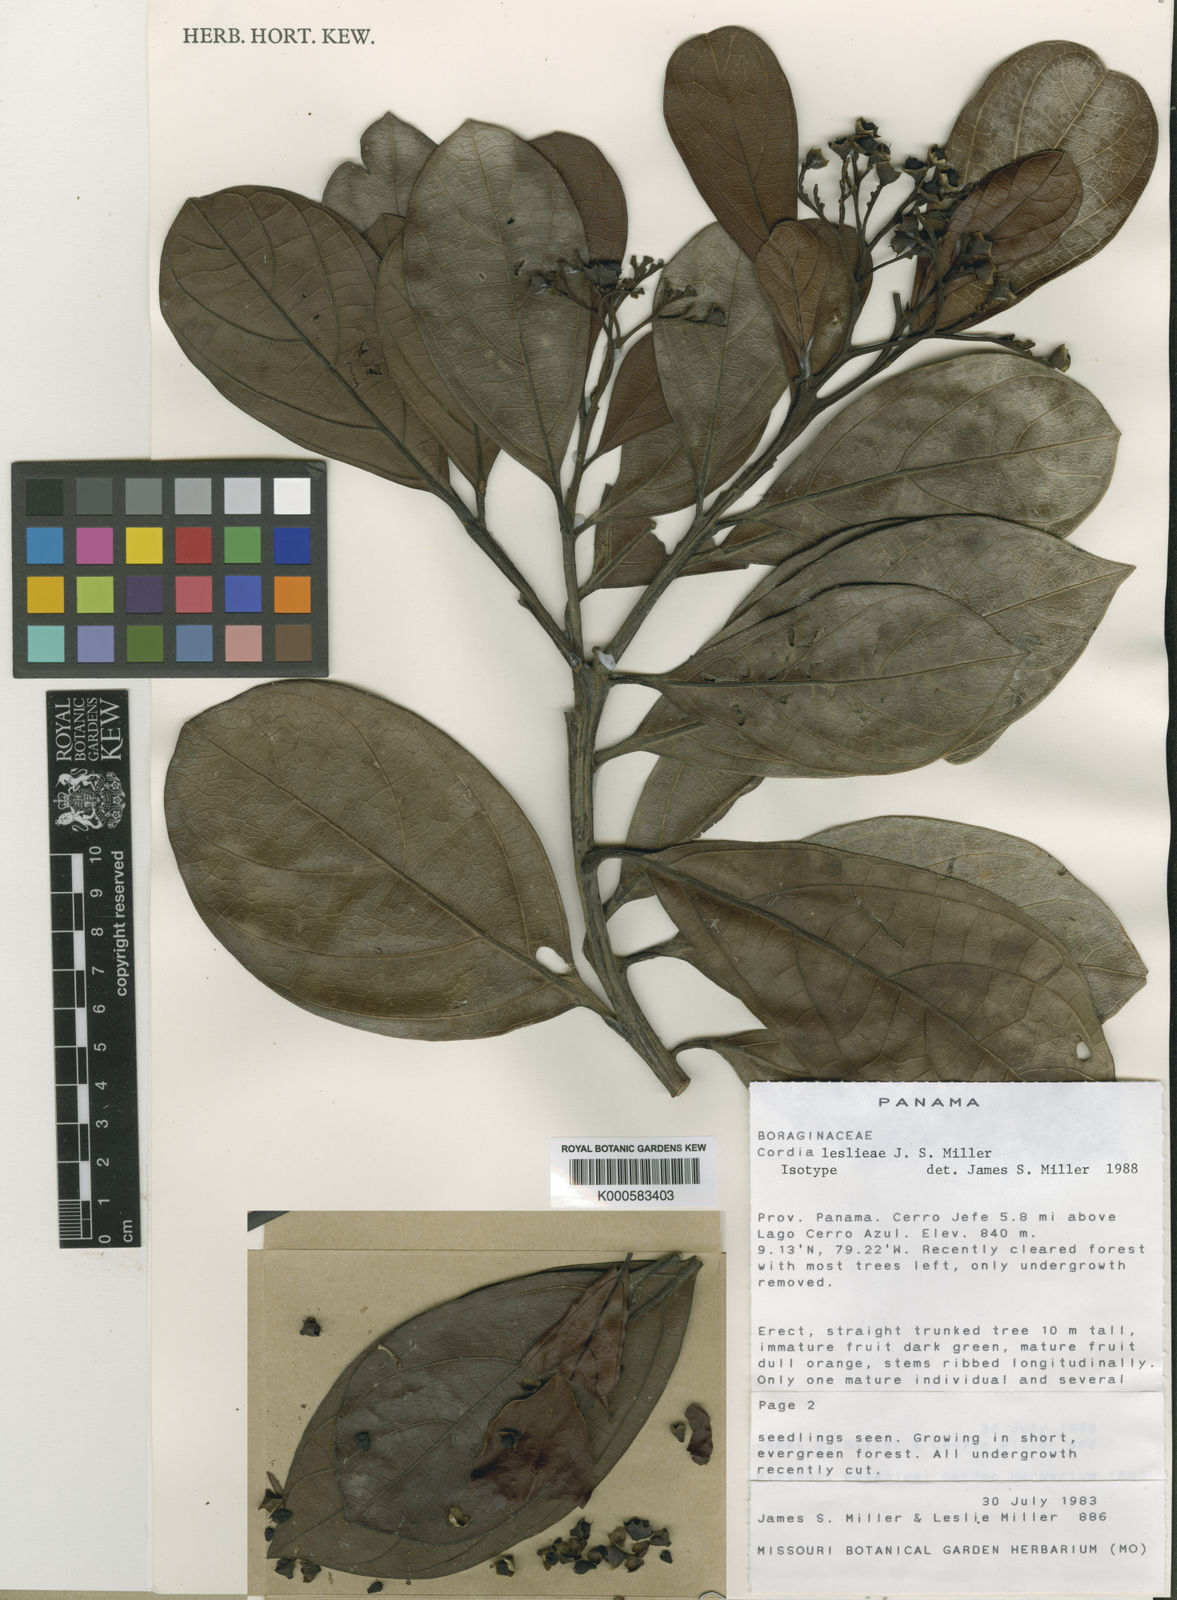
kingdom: Plantae
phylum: Tracheophyta
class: Magnoliopsida
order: Boraginales
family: Cordiaceae
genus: Cordia
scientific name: Cordia leslieae
